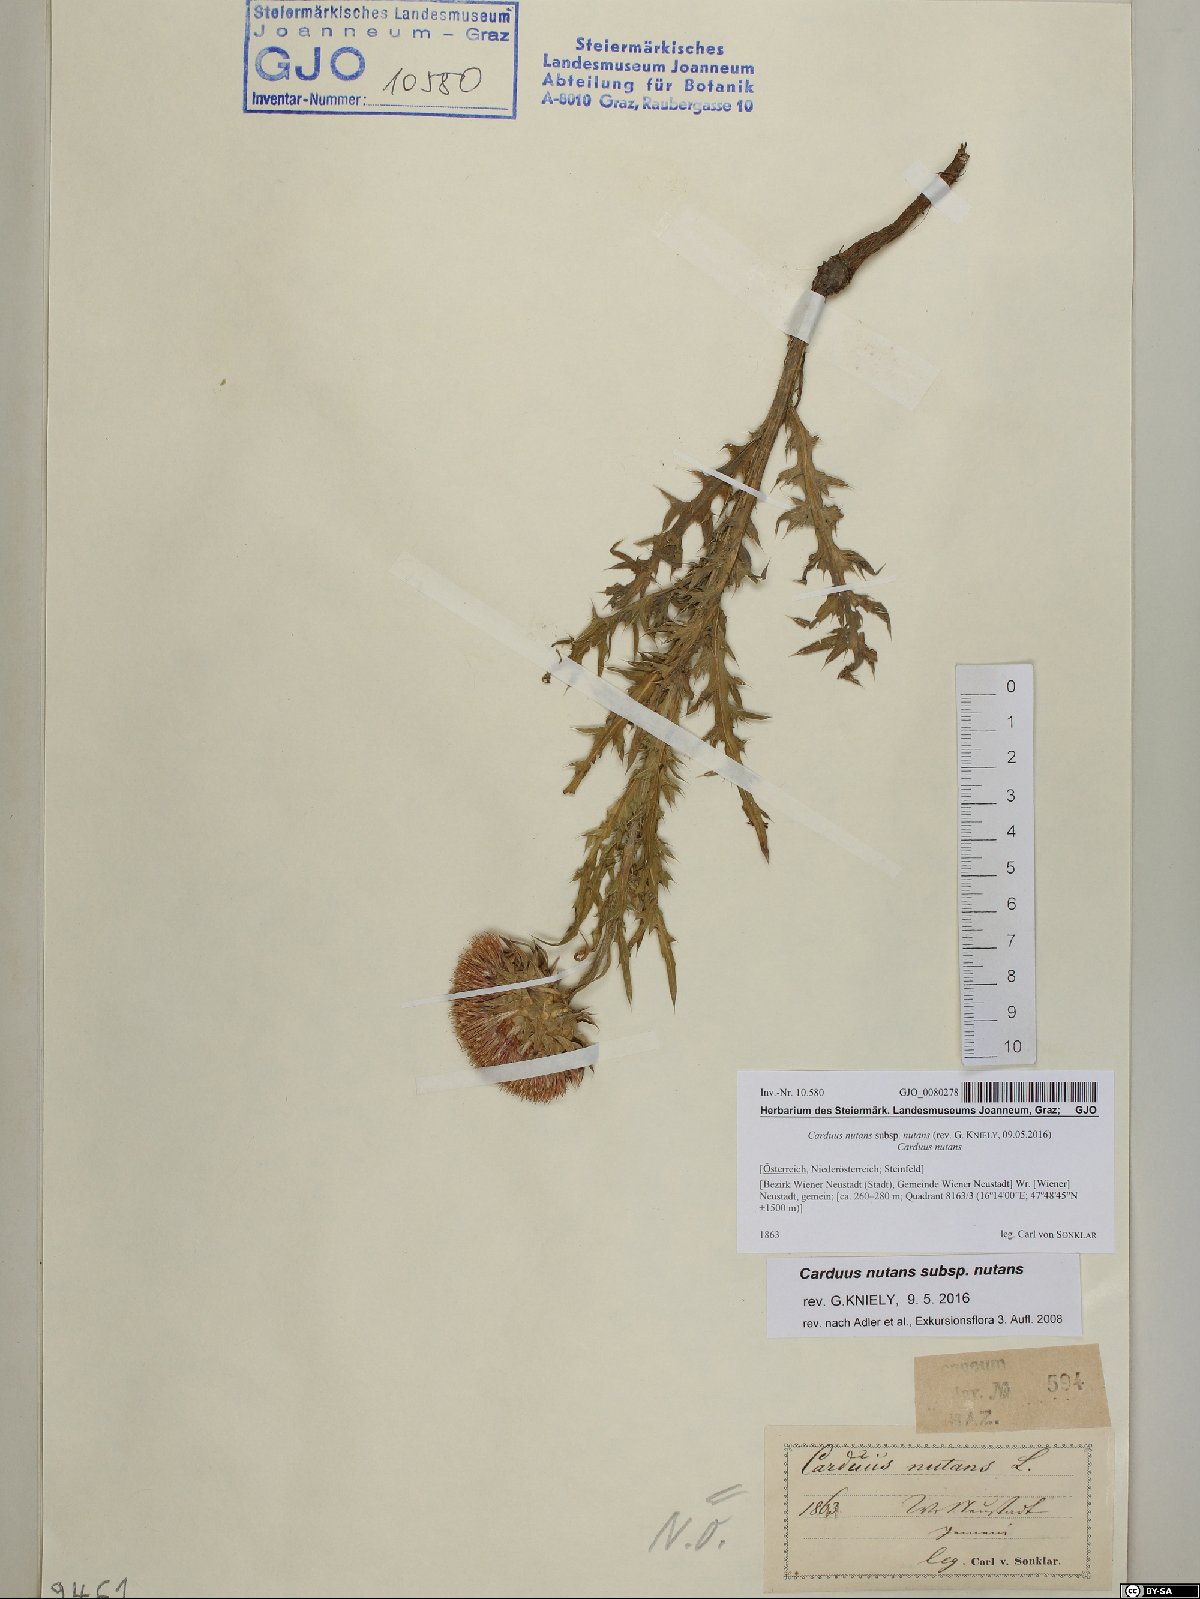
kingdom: Plantae
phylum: Tracheophyta
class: Magnoliopsida
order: Asterales
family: Asteraceae
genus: Carduus
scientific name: Carduus nutans
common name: Musk thistle
